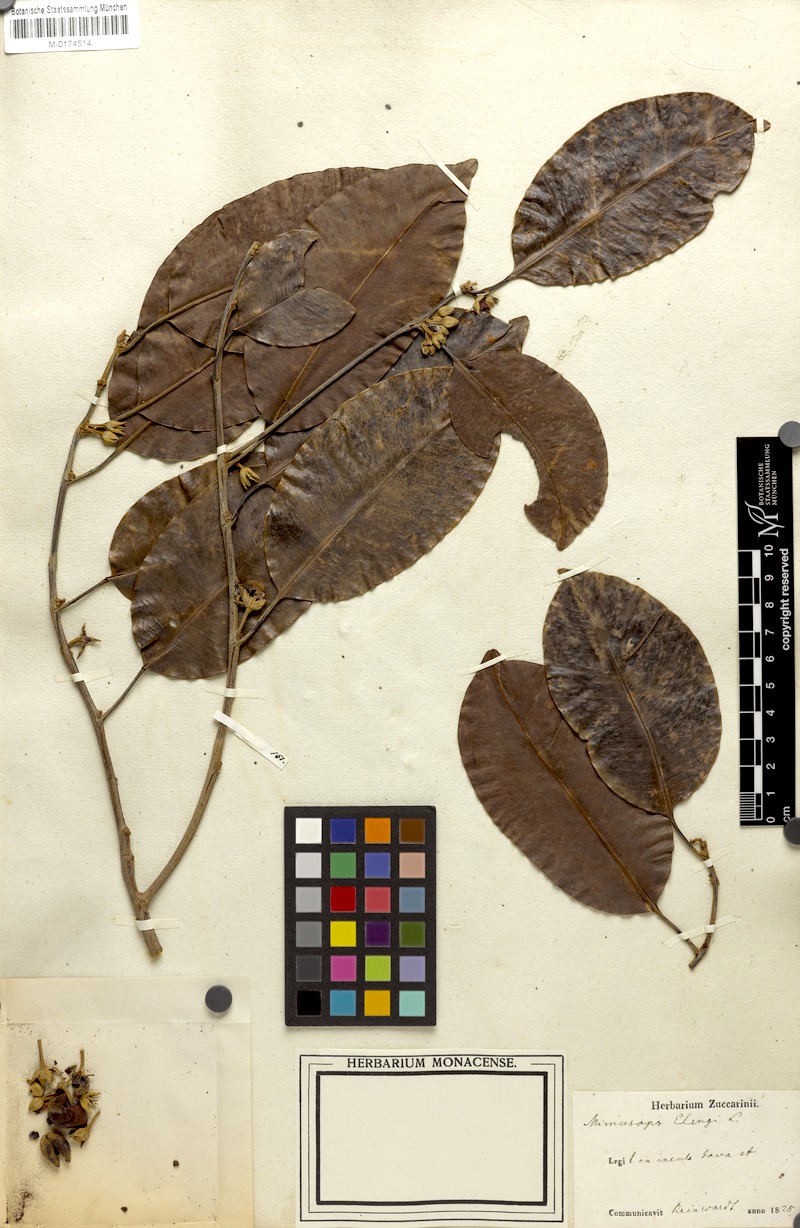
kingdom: Plantae
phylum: Tracheophyta
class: Magnoliopsida
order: Ericales
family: Sapotaceae
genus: Mimusops
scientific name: Mimusops elengi
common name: Spanish cherry
